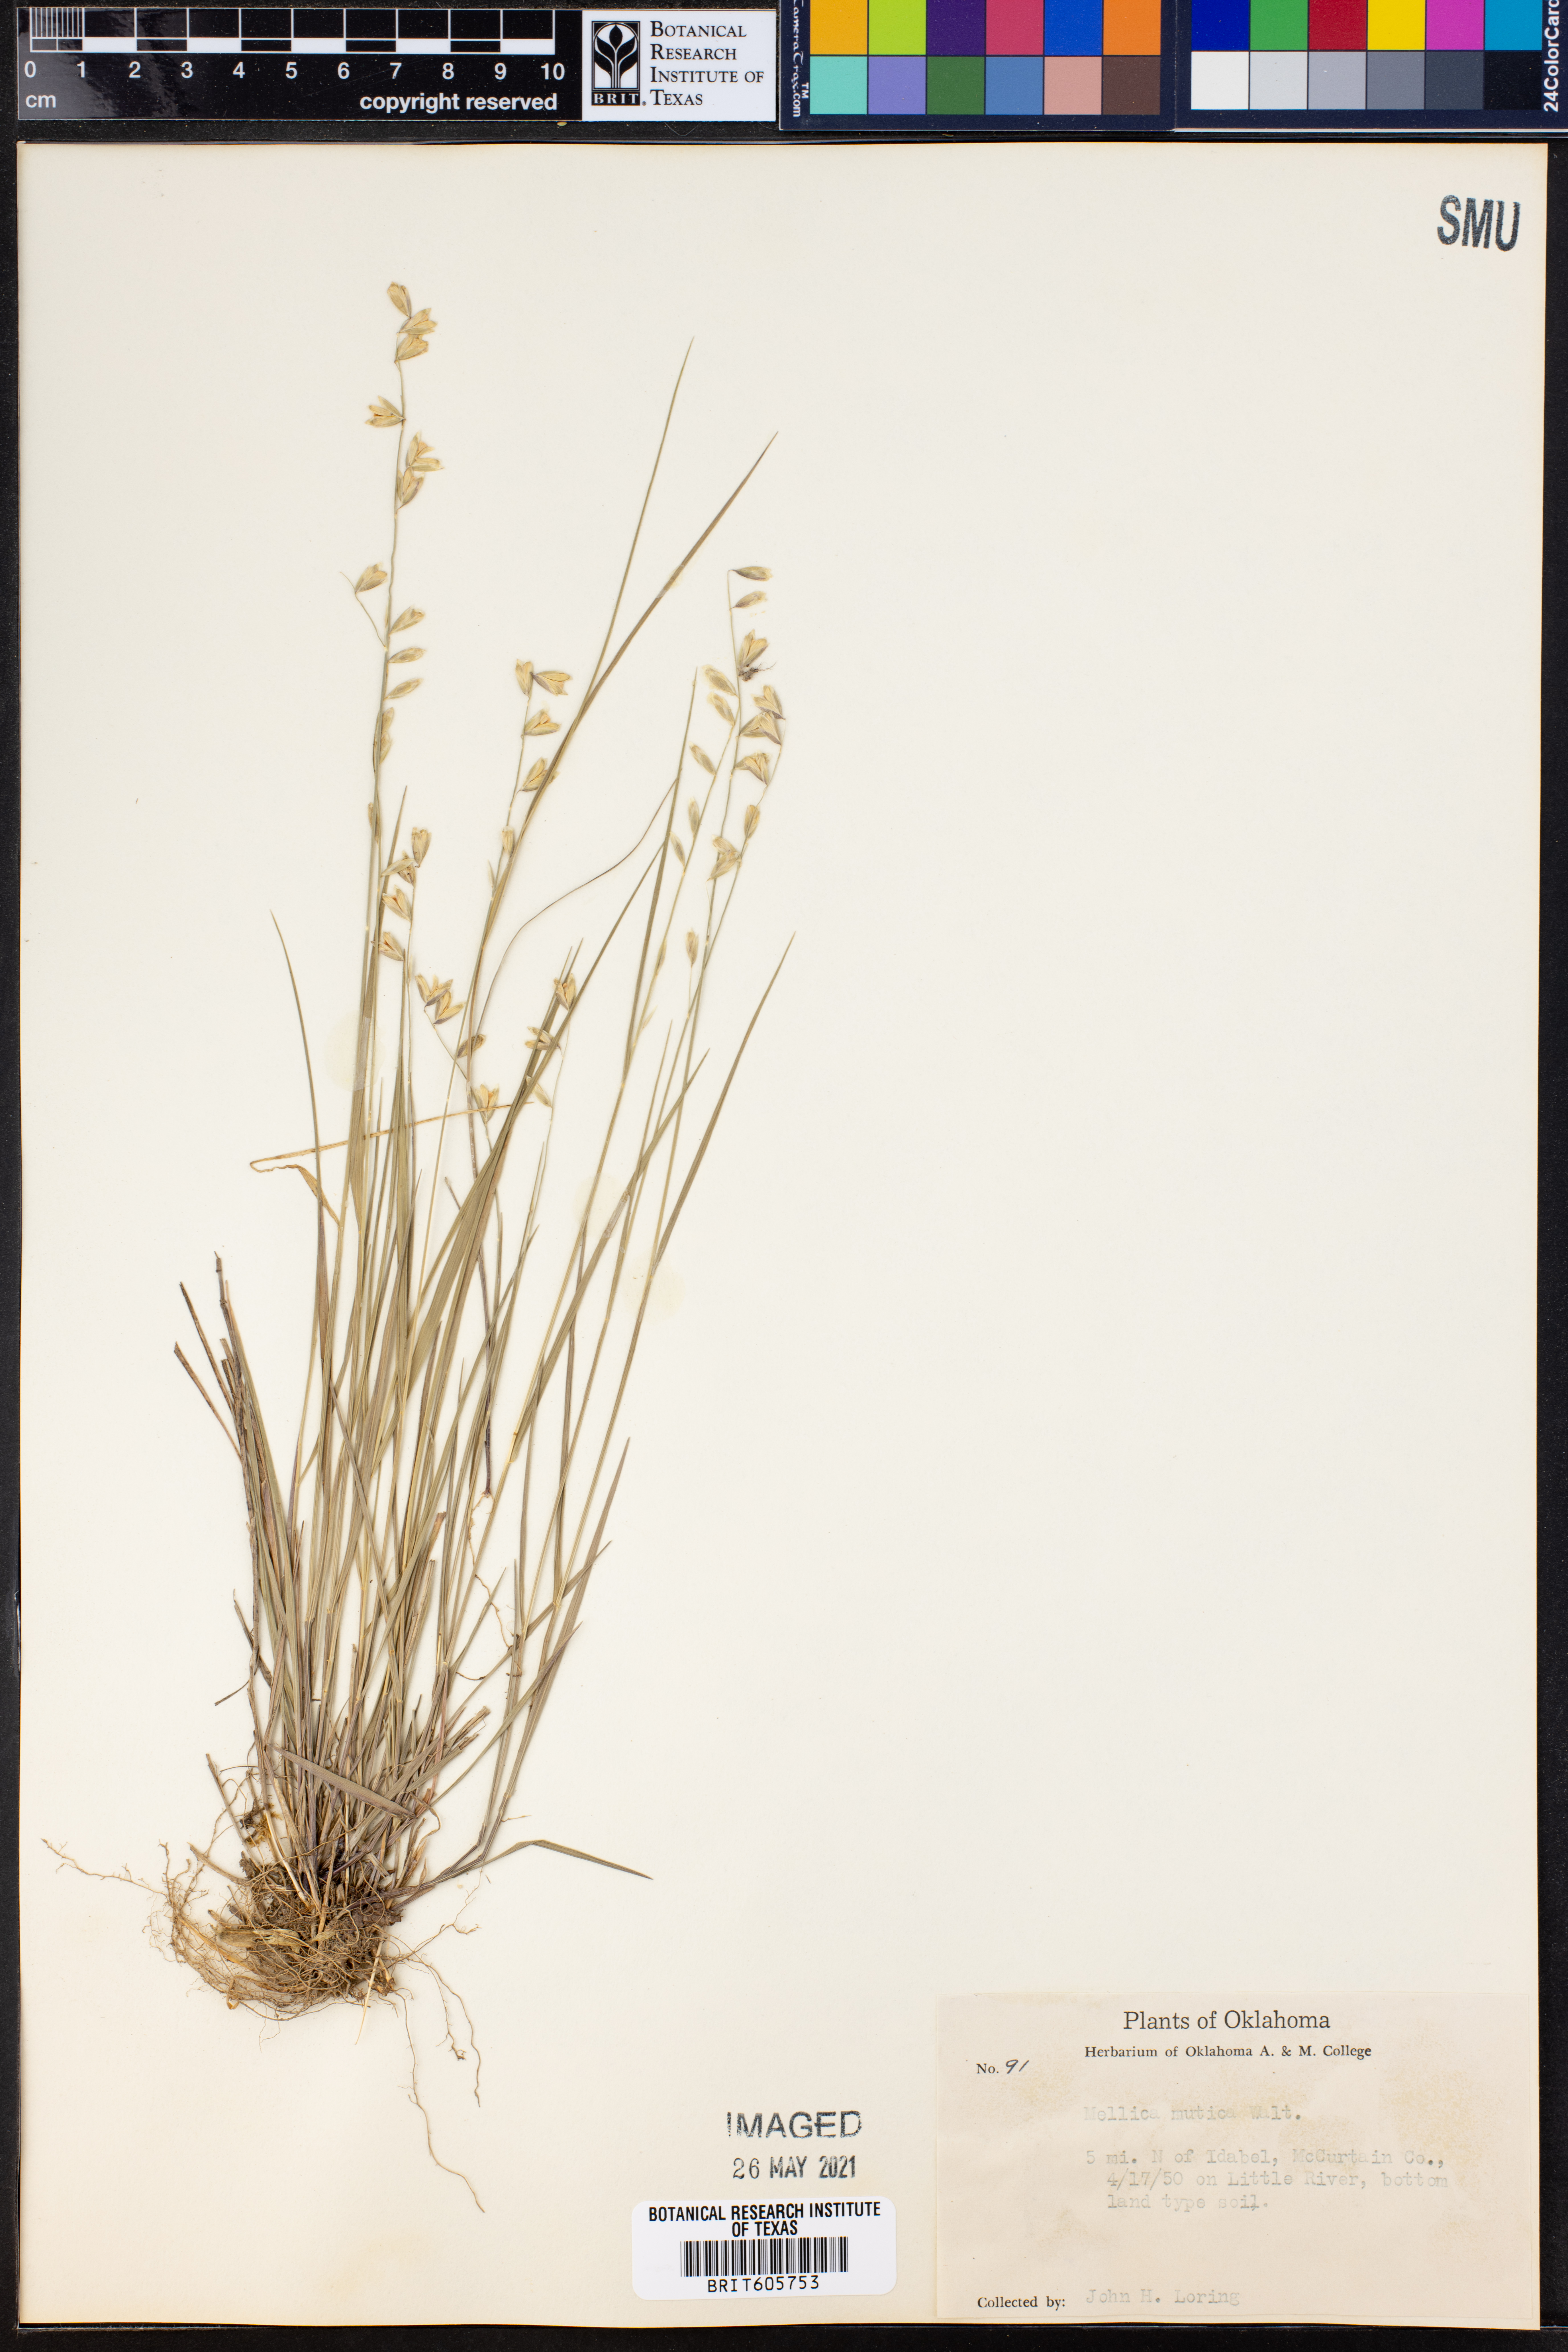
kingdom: Plantae
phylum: Tracheophyta
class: Liliopsida
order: Poales
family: Poaceae
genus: Melica
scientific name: Melica mutica
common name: Two-flower melic
